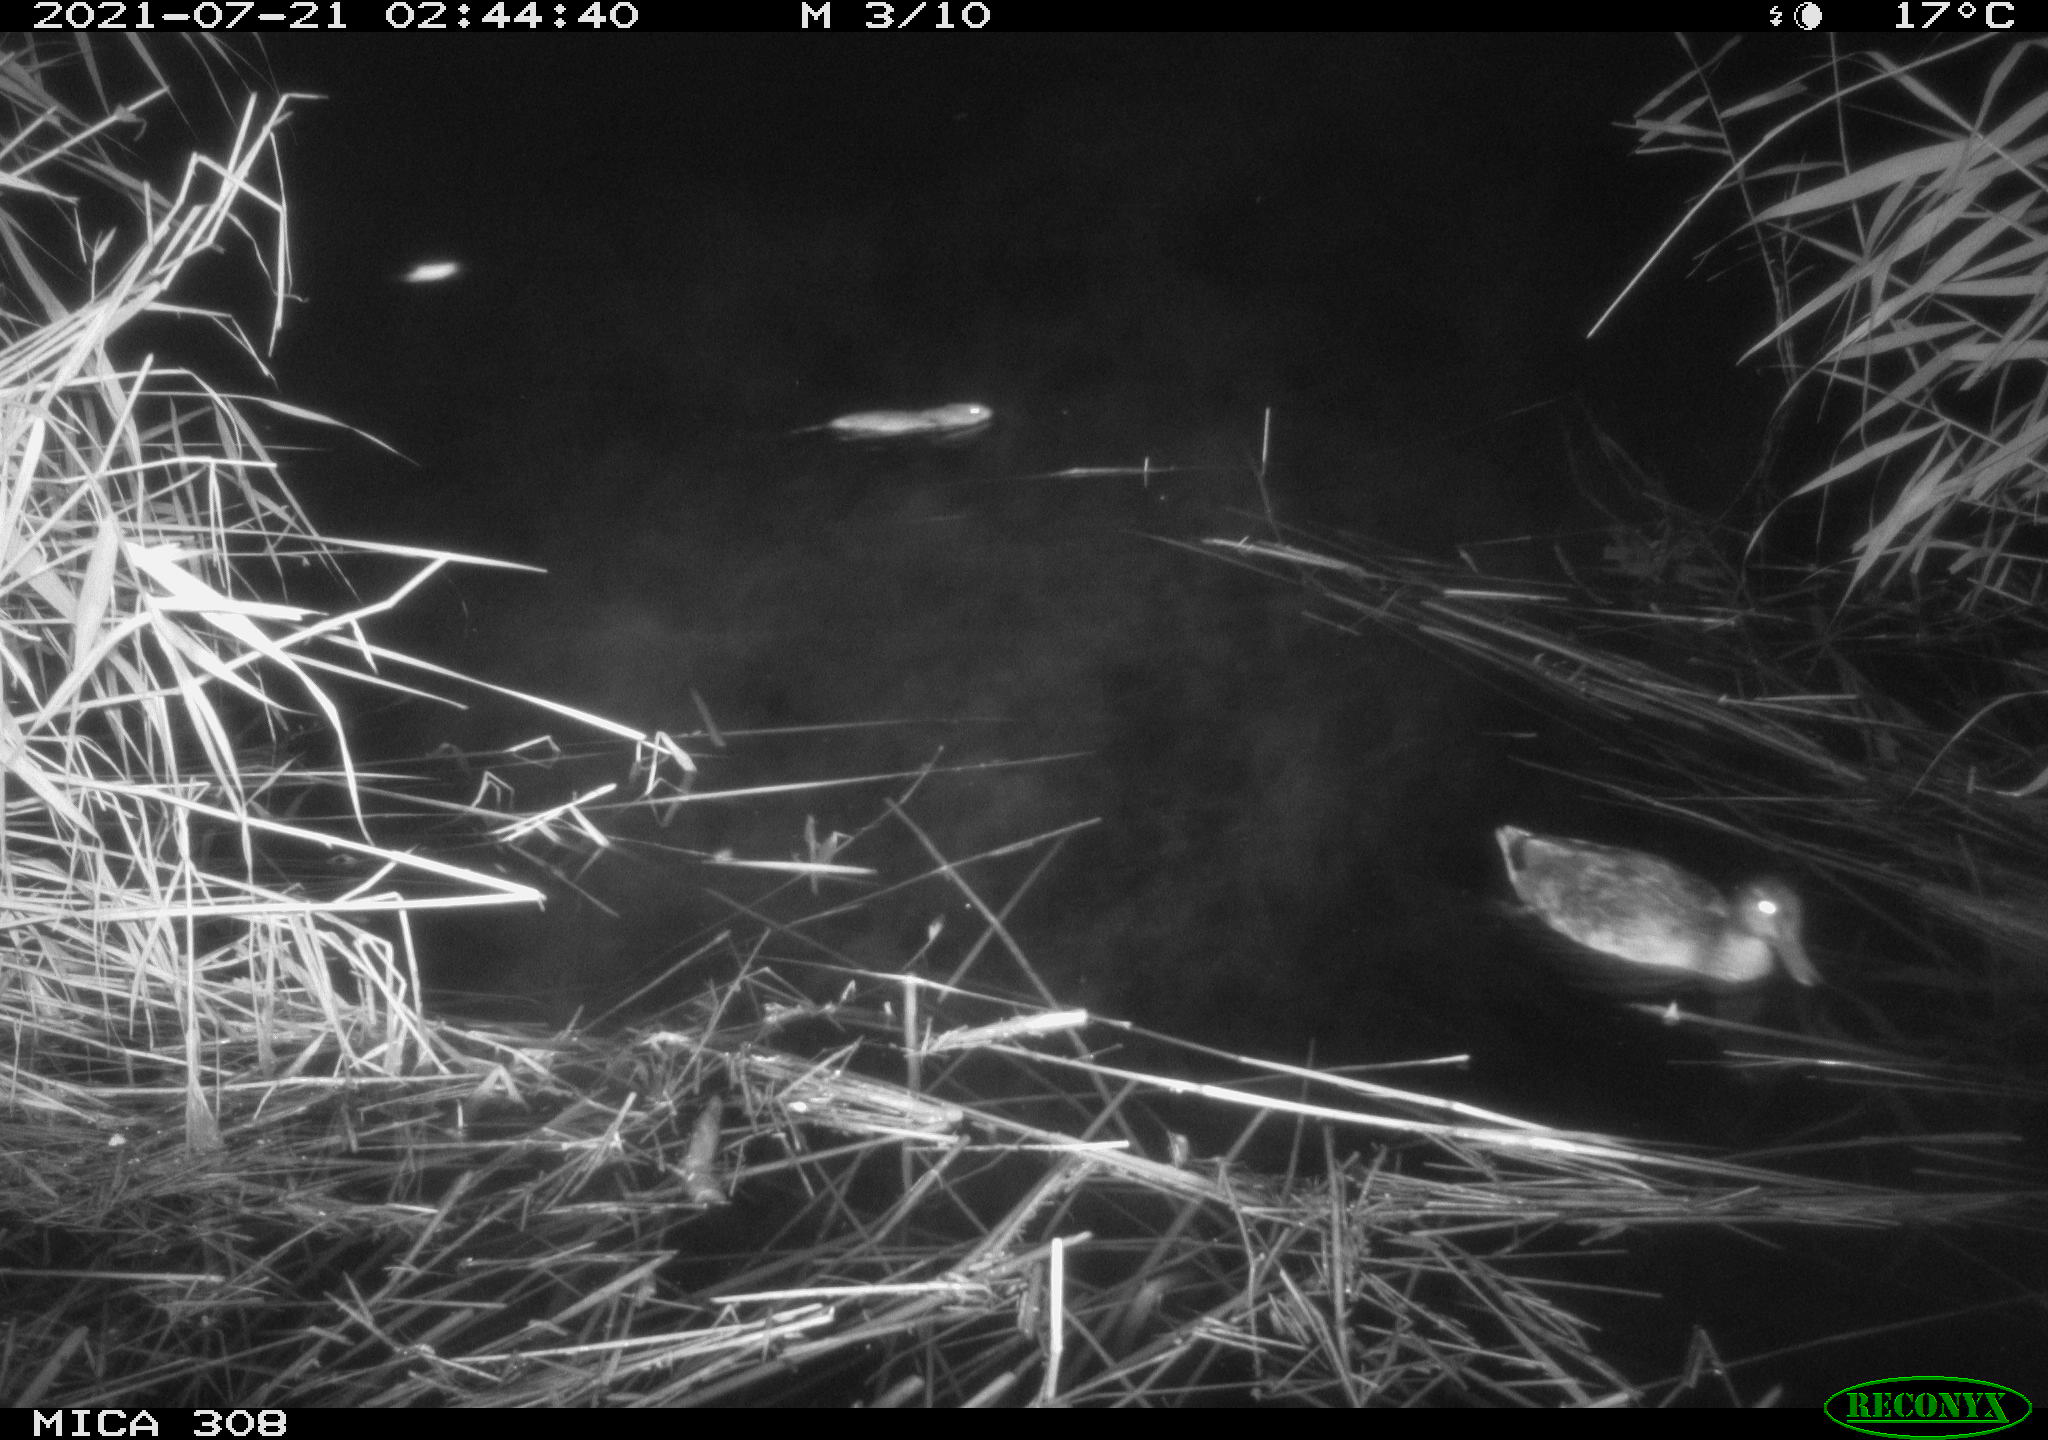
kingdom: Animalia
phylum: Chordata
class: Aves
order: Gruiformes
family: Rallidae
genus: Gallinula
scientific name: Gallinula chloropus
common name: Common moorhen
